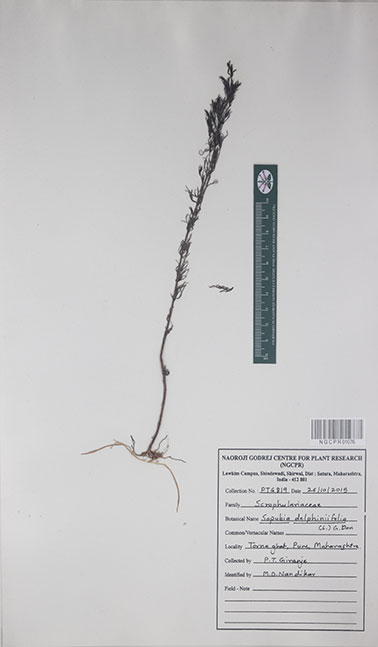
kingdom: Plantae
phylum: Tracheophyta
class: Magnoliopsida
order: Lamiales
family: Orobanchaceae
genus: Parasopubia
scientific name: Parasopubia delphiniifolia
